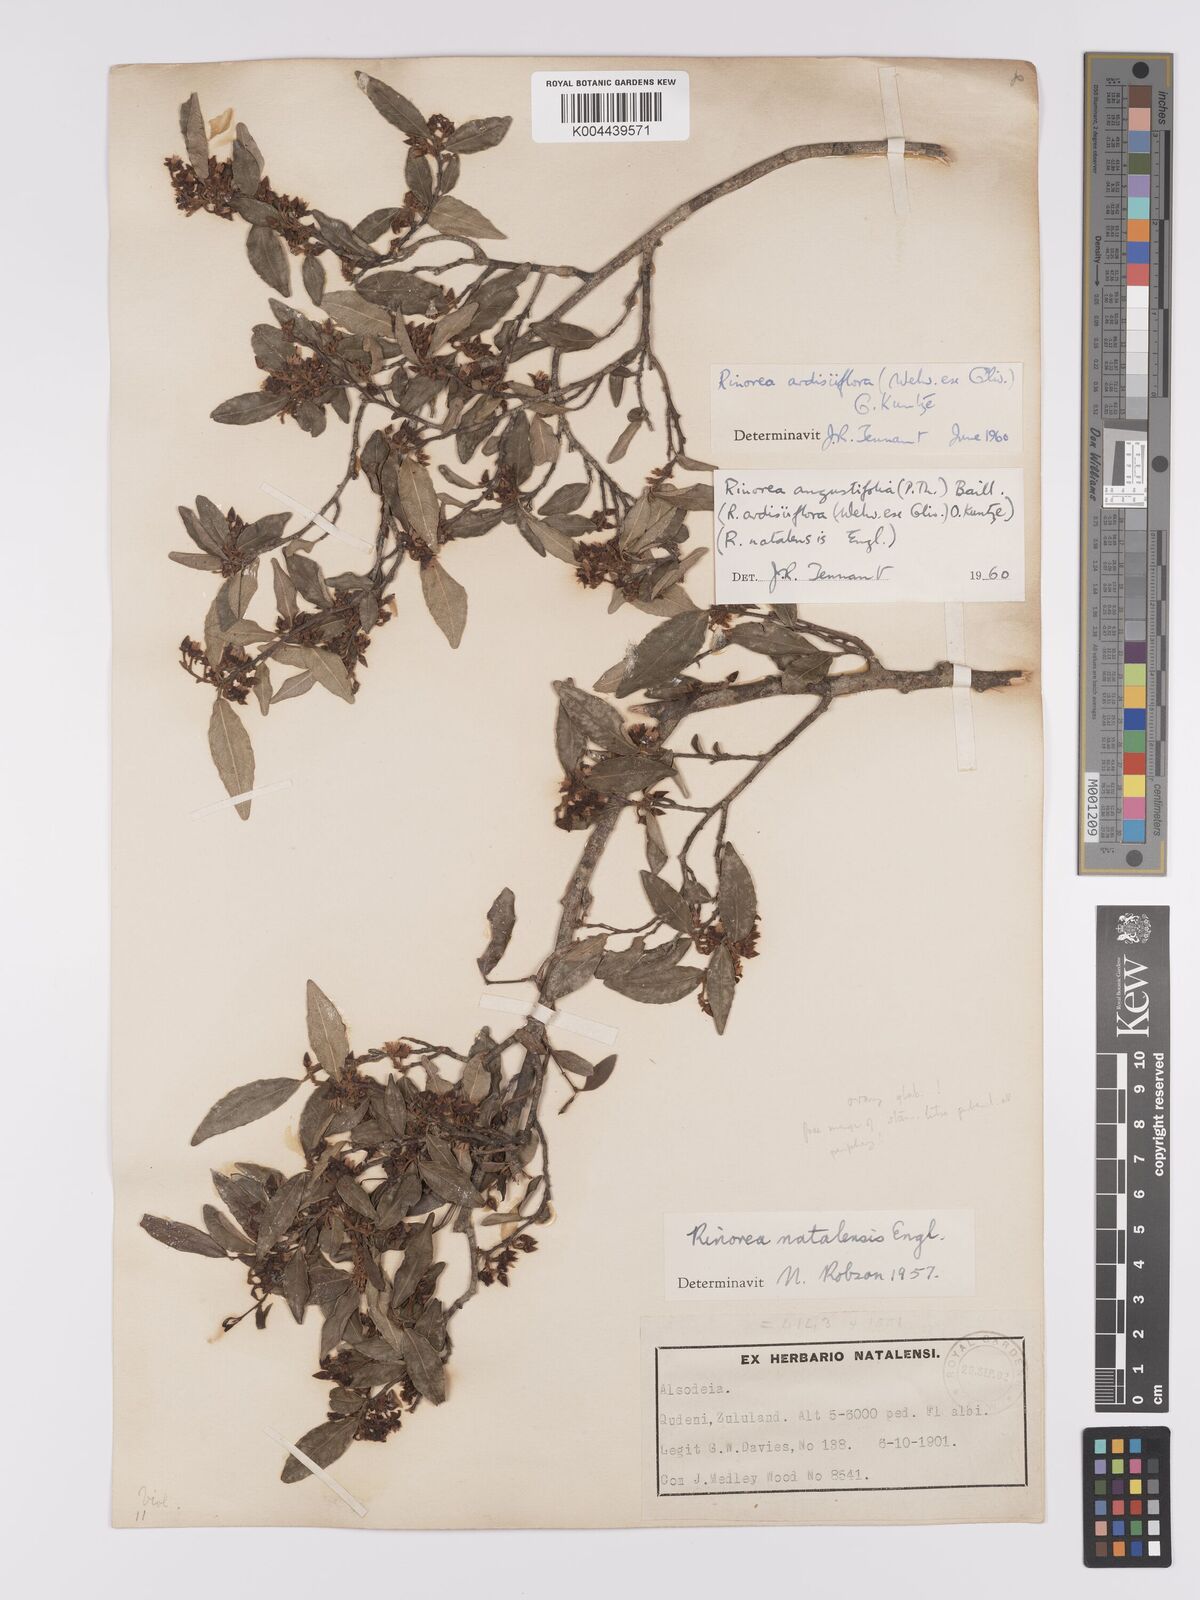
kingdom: Plantae
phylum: Tracheophyta
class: Magnoliopsida
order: Malpighiales
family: Violaceae
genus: Rinorea
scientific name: Rinorea angustifolia
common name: White violet-bush
